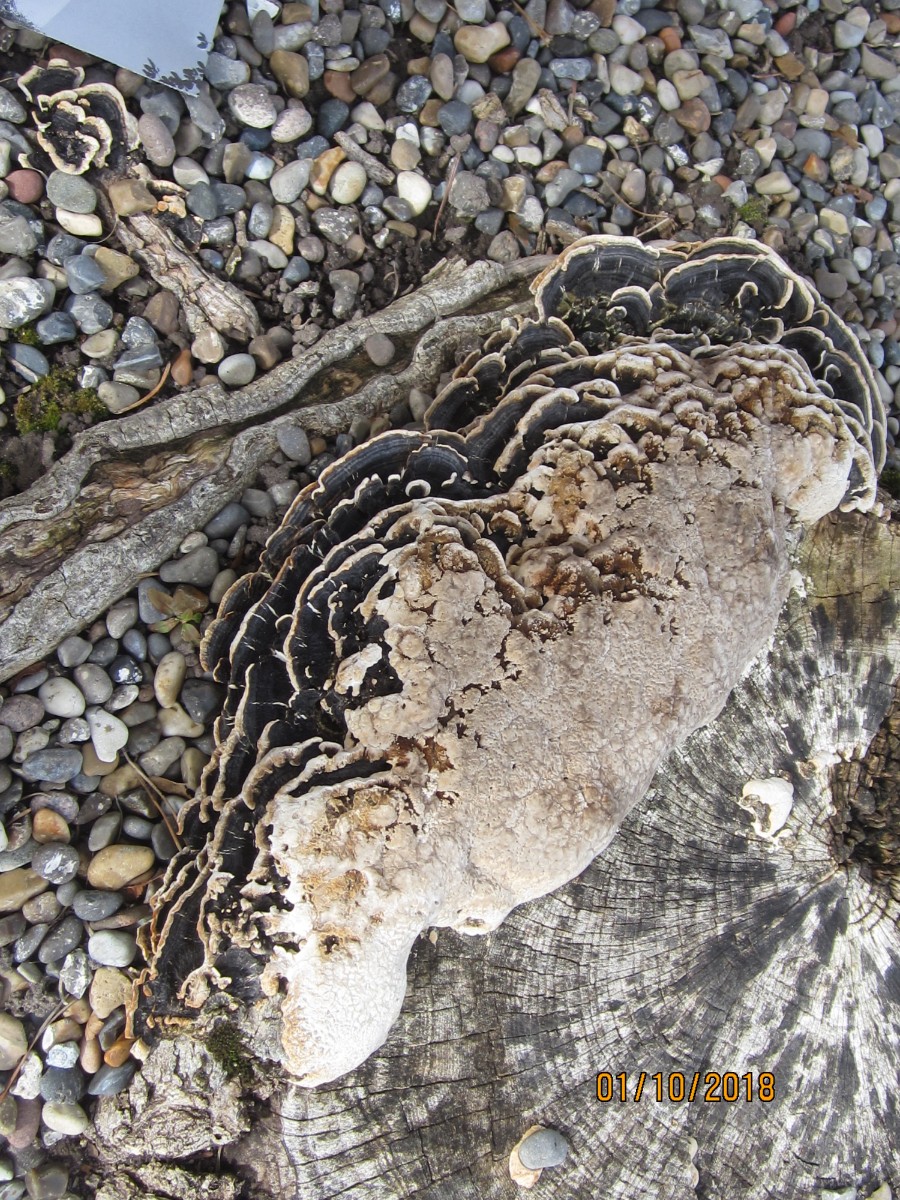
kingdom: Fungi
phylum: Basidiomycota
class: Agaricomycetes
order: Polyporales
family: Polyporaceae
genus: Trametes
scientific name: Trametes versicolor
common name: broget læderporesvamp
